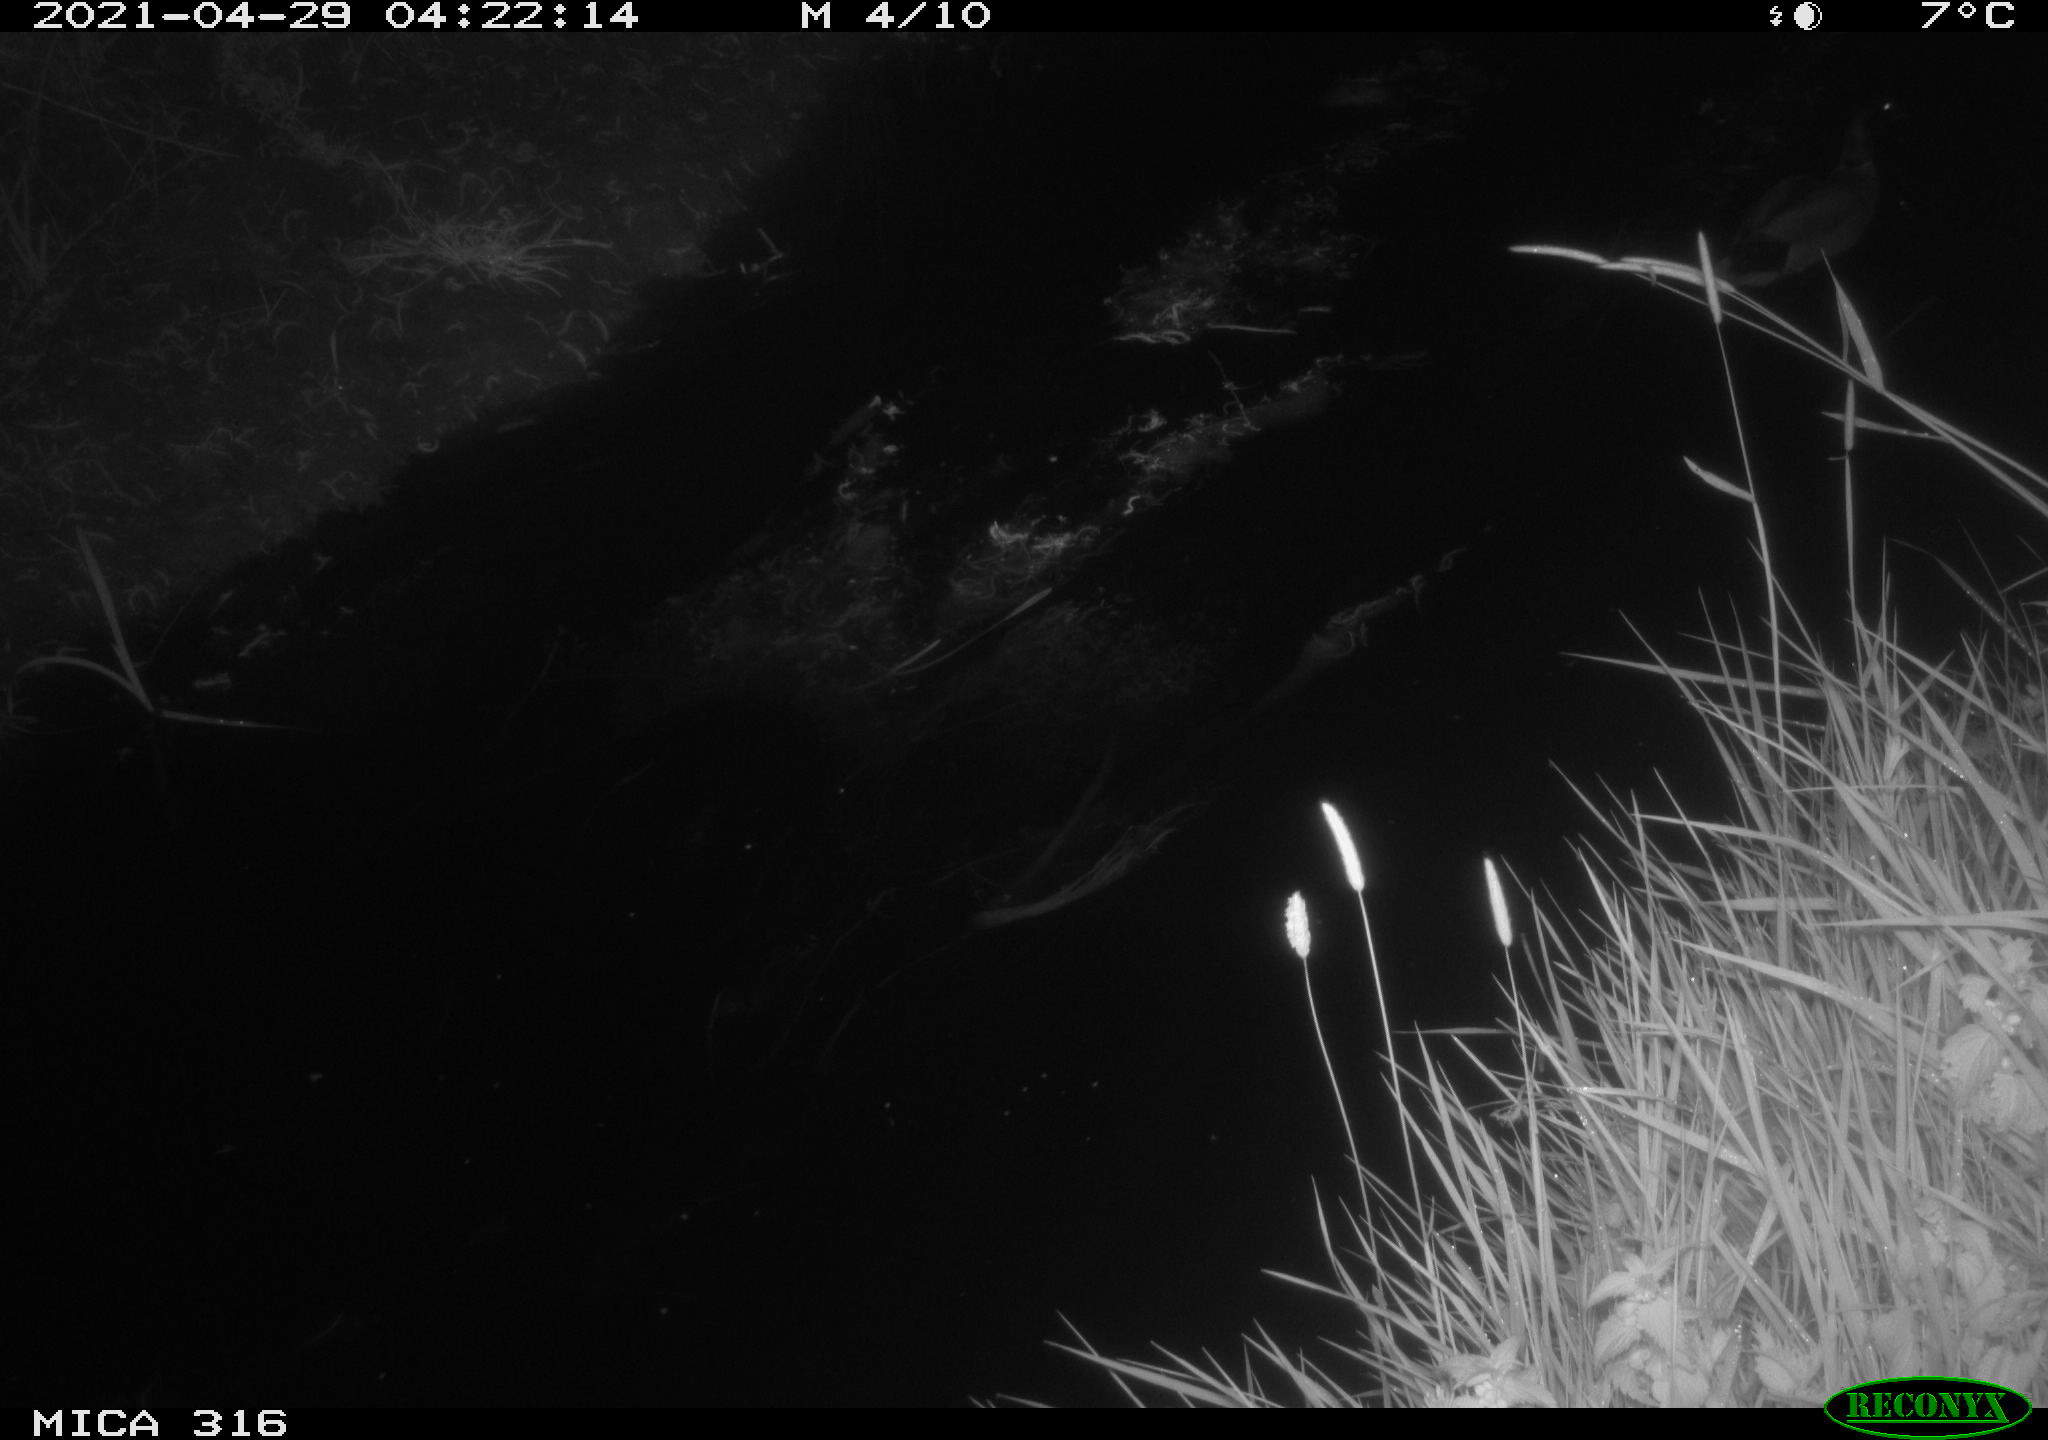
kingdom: Animalia
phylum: Chordata
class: Aves
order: Anseriformes
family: Anatidae
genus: Anas
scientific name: Anas platyrhynchos
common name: Mallard
